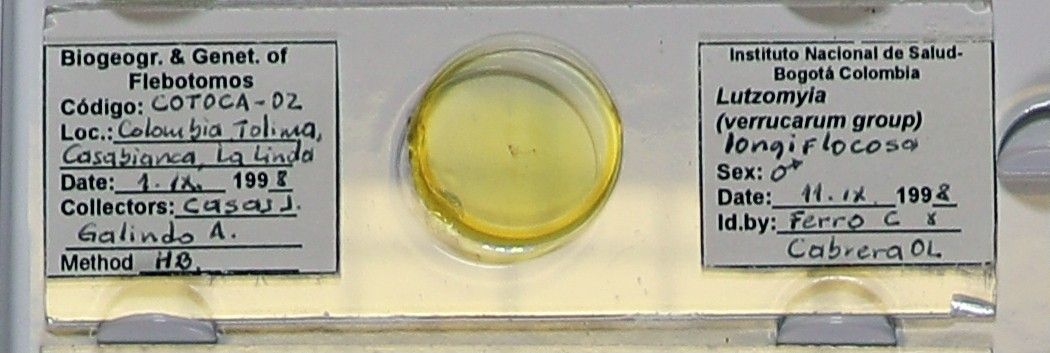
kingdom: Animalia
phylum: Arthropoda
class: Insecta
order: Diptera
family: Psychodidae
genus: Pintomyia
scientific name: Pintomyia longiflocosa
